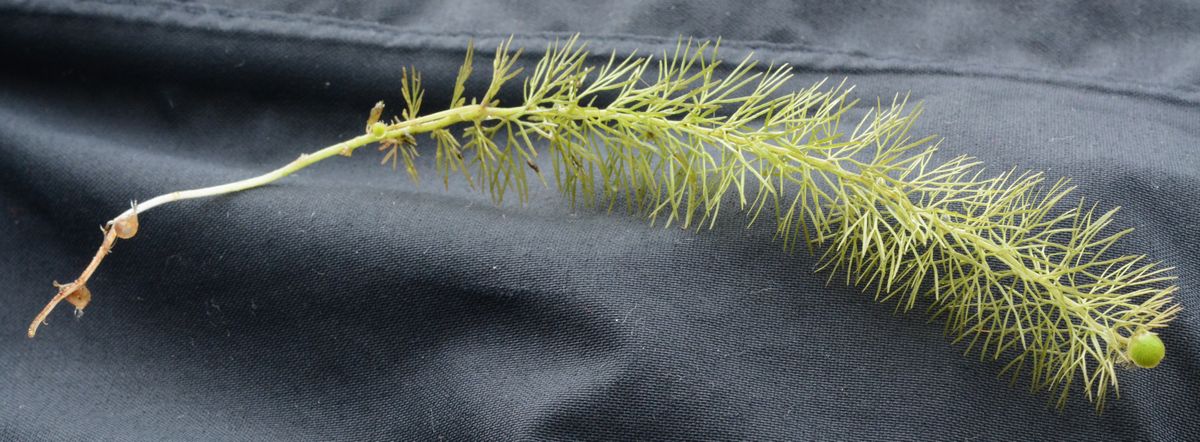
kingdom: Plantae
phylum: Tracheophyta
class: Magnoliopsida
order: Lamiales
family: Lentibulariaceae
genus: Utricularia
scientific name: Utricularia intermedia
